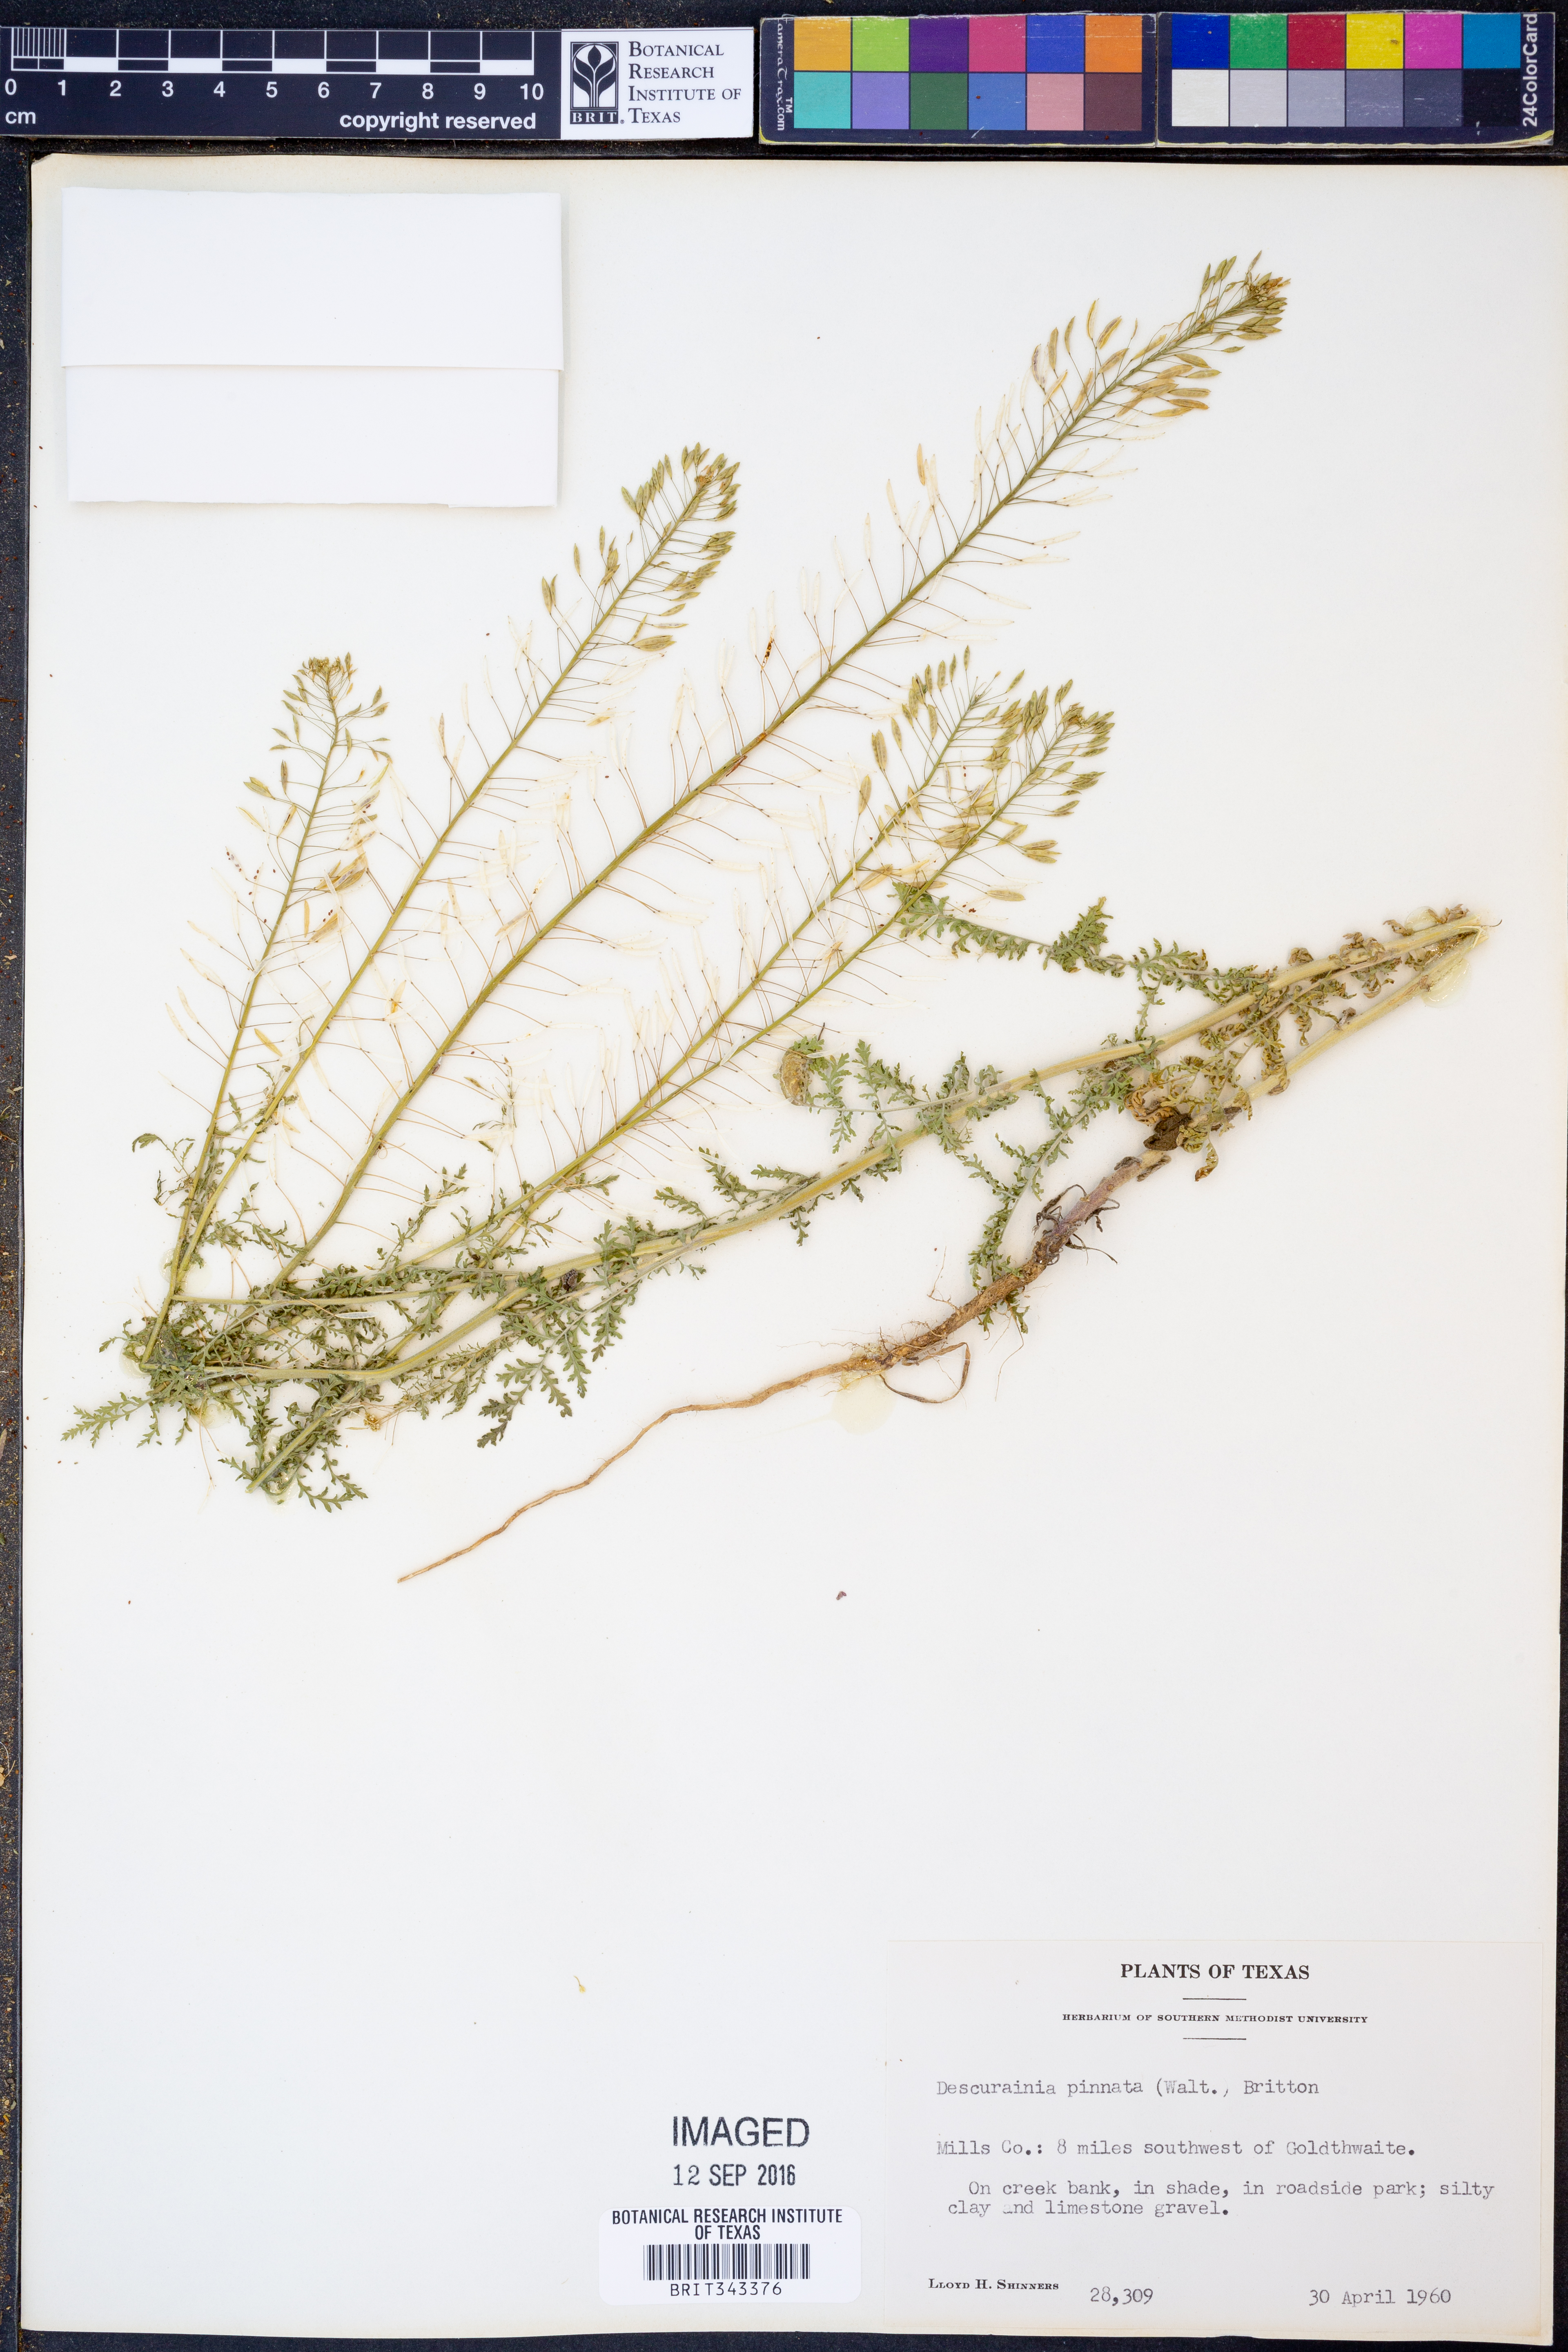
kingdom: Plantae
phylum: Tracheophyta
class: Magnoliopsida
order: Brassicales
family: Brassicaceae
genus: Descurainia
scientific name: Descurainia pinnata
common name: Western tansy mustard
